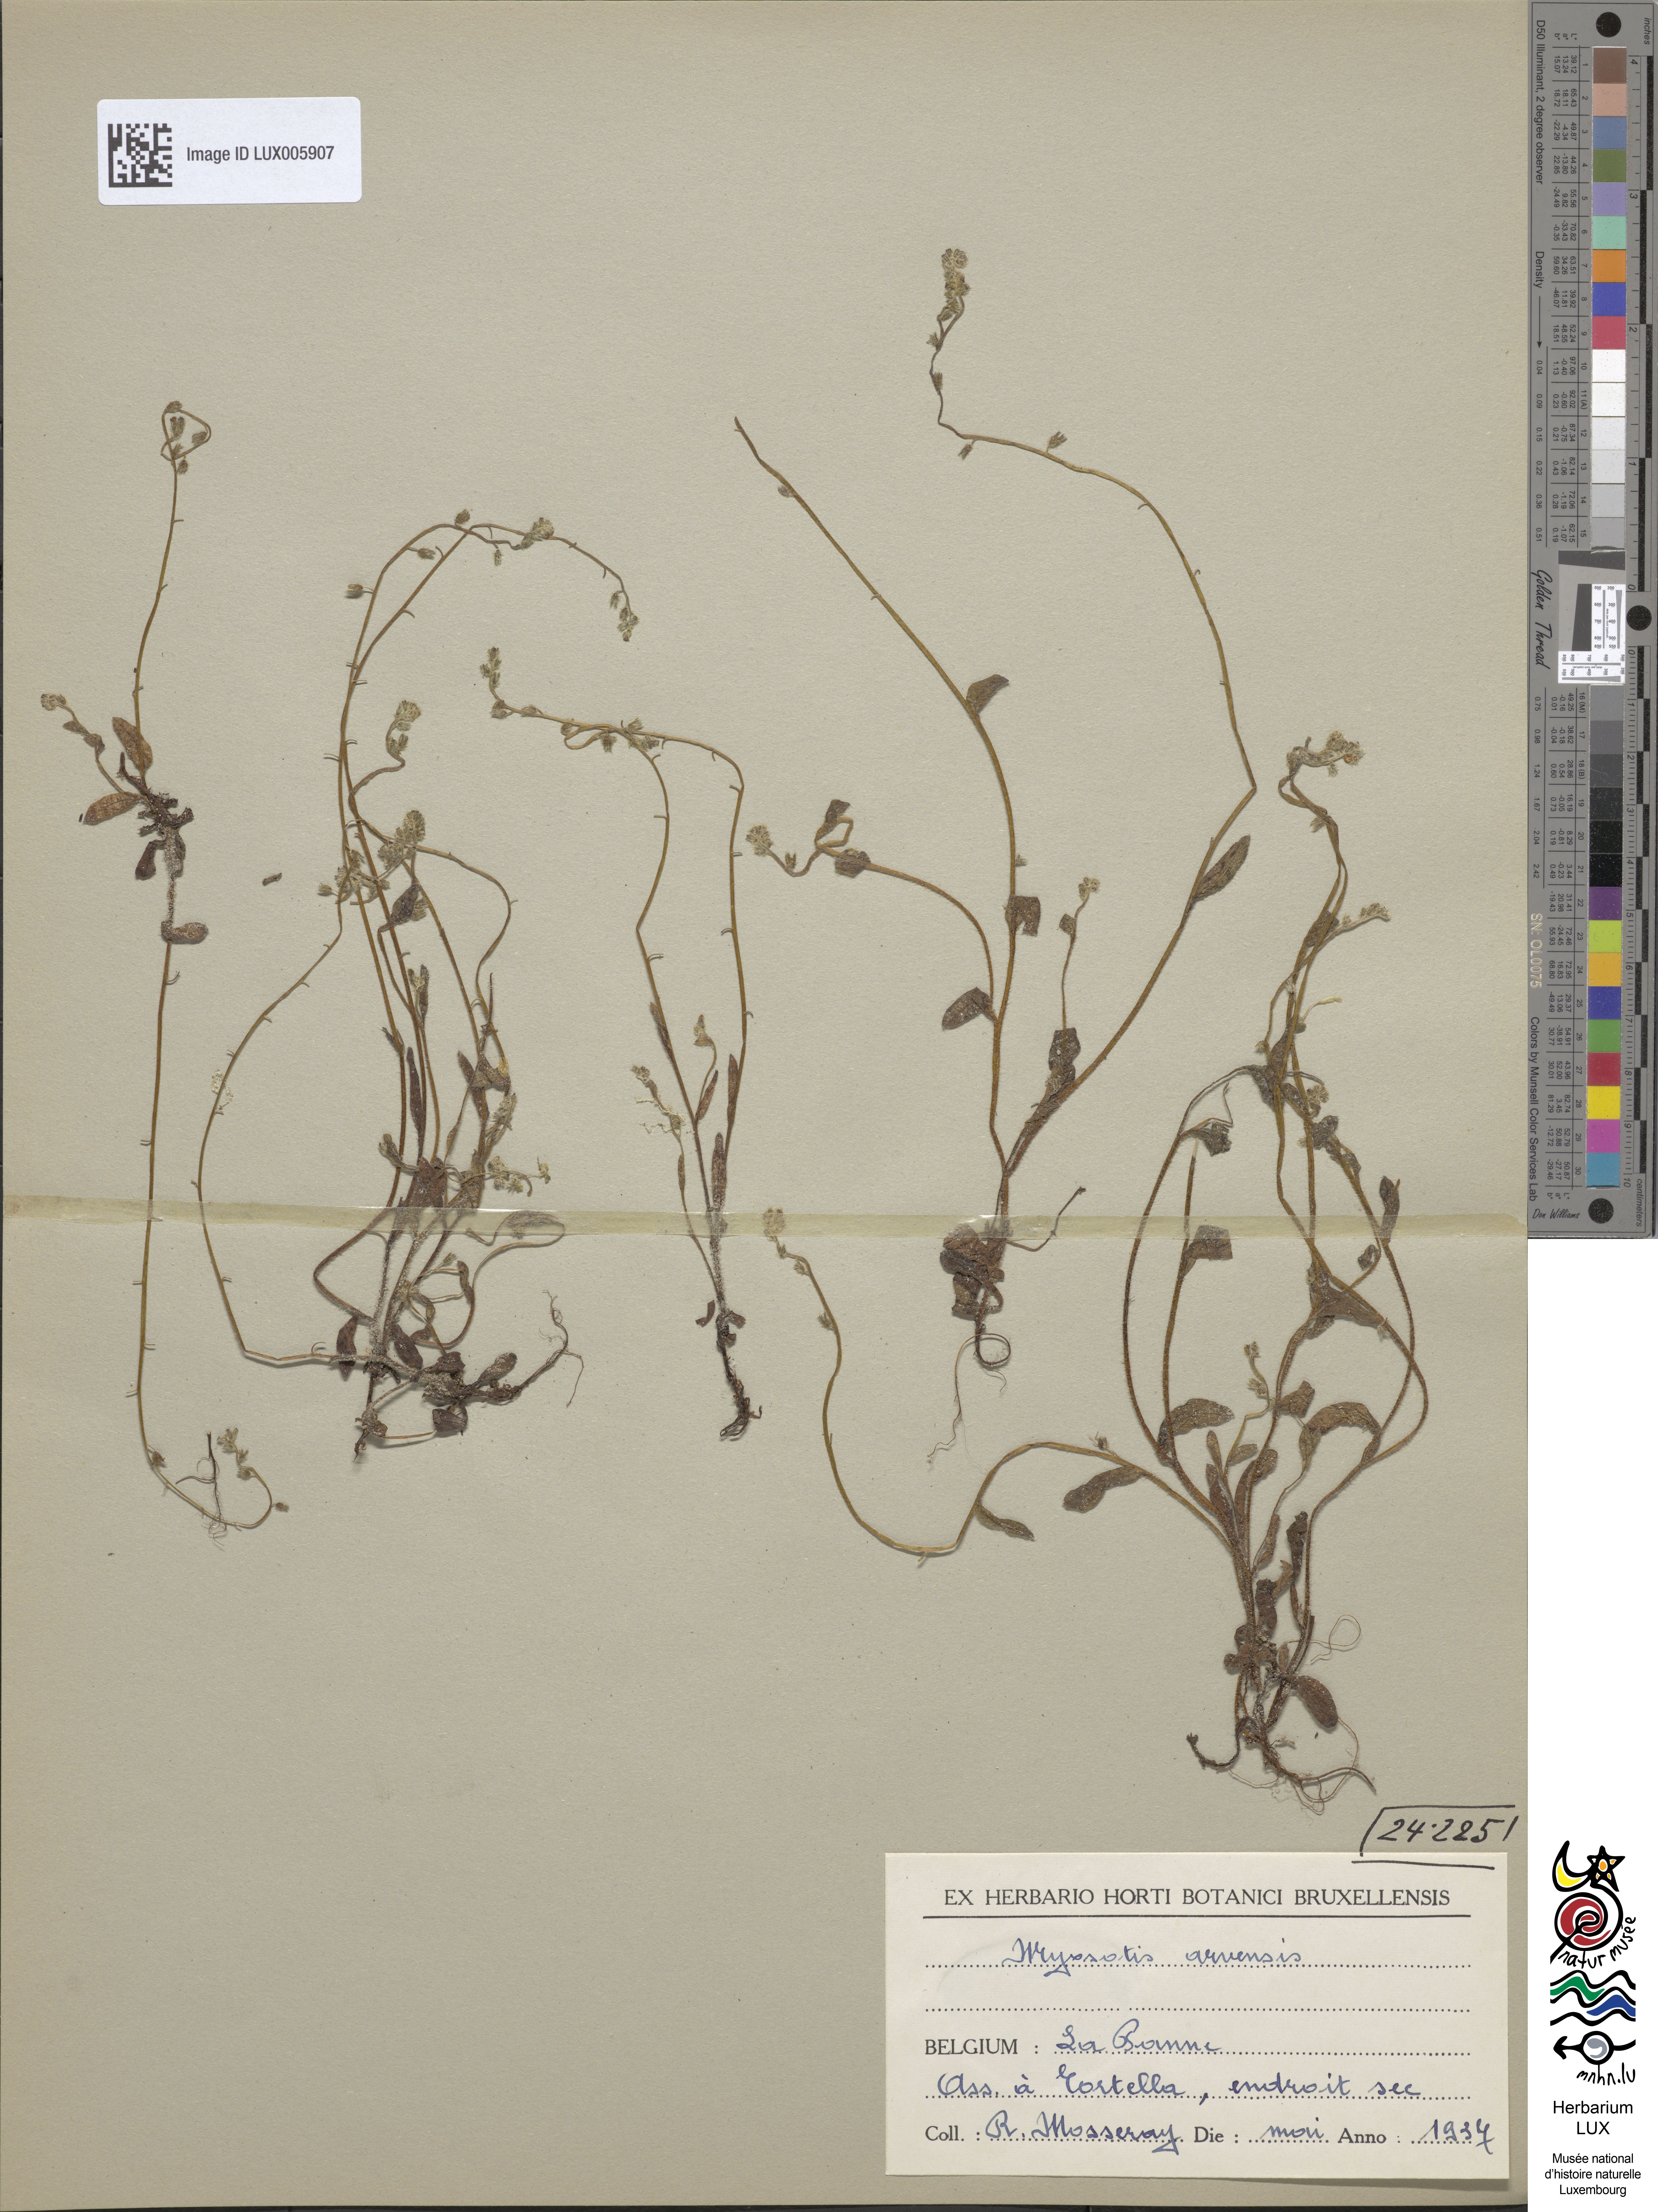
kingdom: Plantae
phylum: Tracheophyta
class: Magnoliopsida
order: Boraginales
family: Boraginaceae
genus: Myosotis
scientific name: Myosotis arvensis
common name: Field forget-me-not
